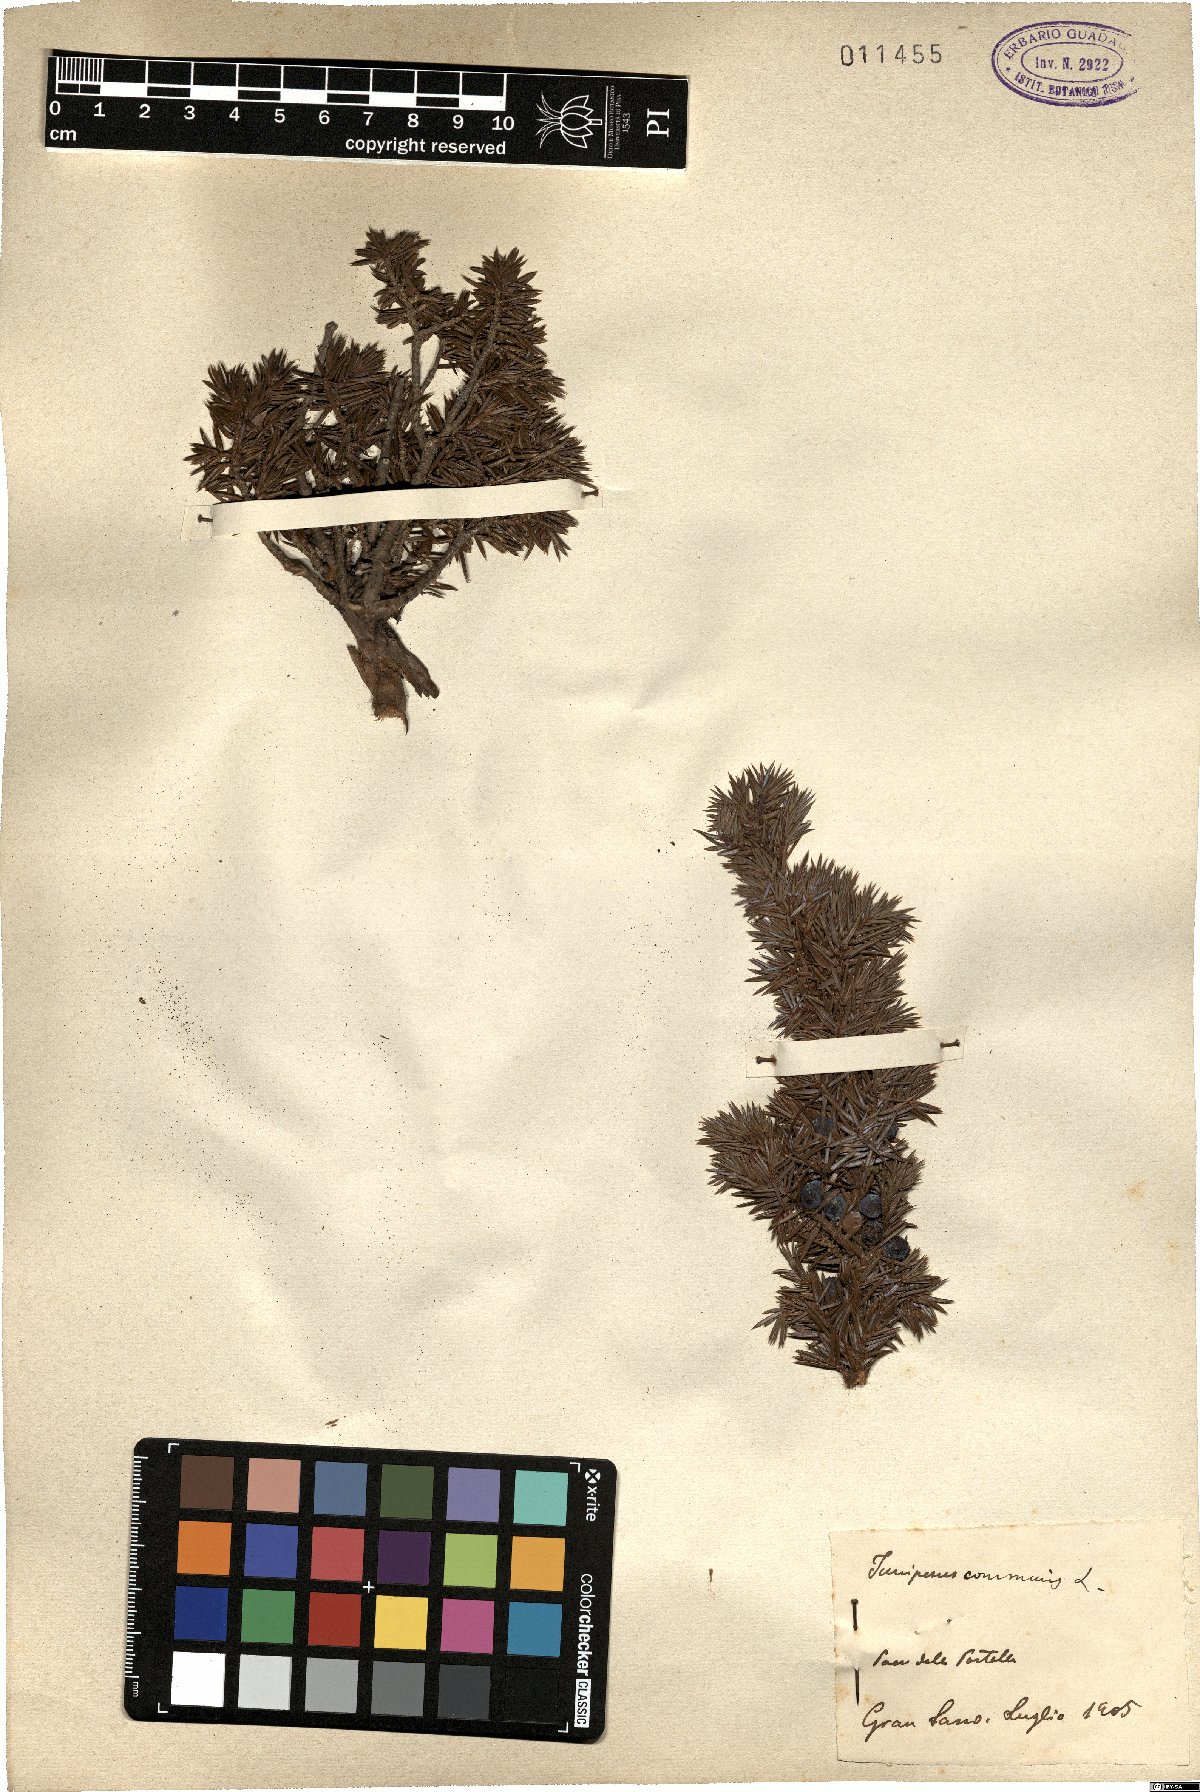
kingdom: Plantae
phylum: Tracheophyta
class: Pinopsida
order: Pinales
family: Cupressaceae
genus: Juniperus
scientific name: Juniperus communis
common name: Common juniper
